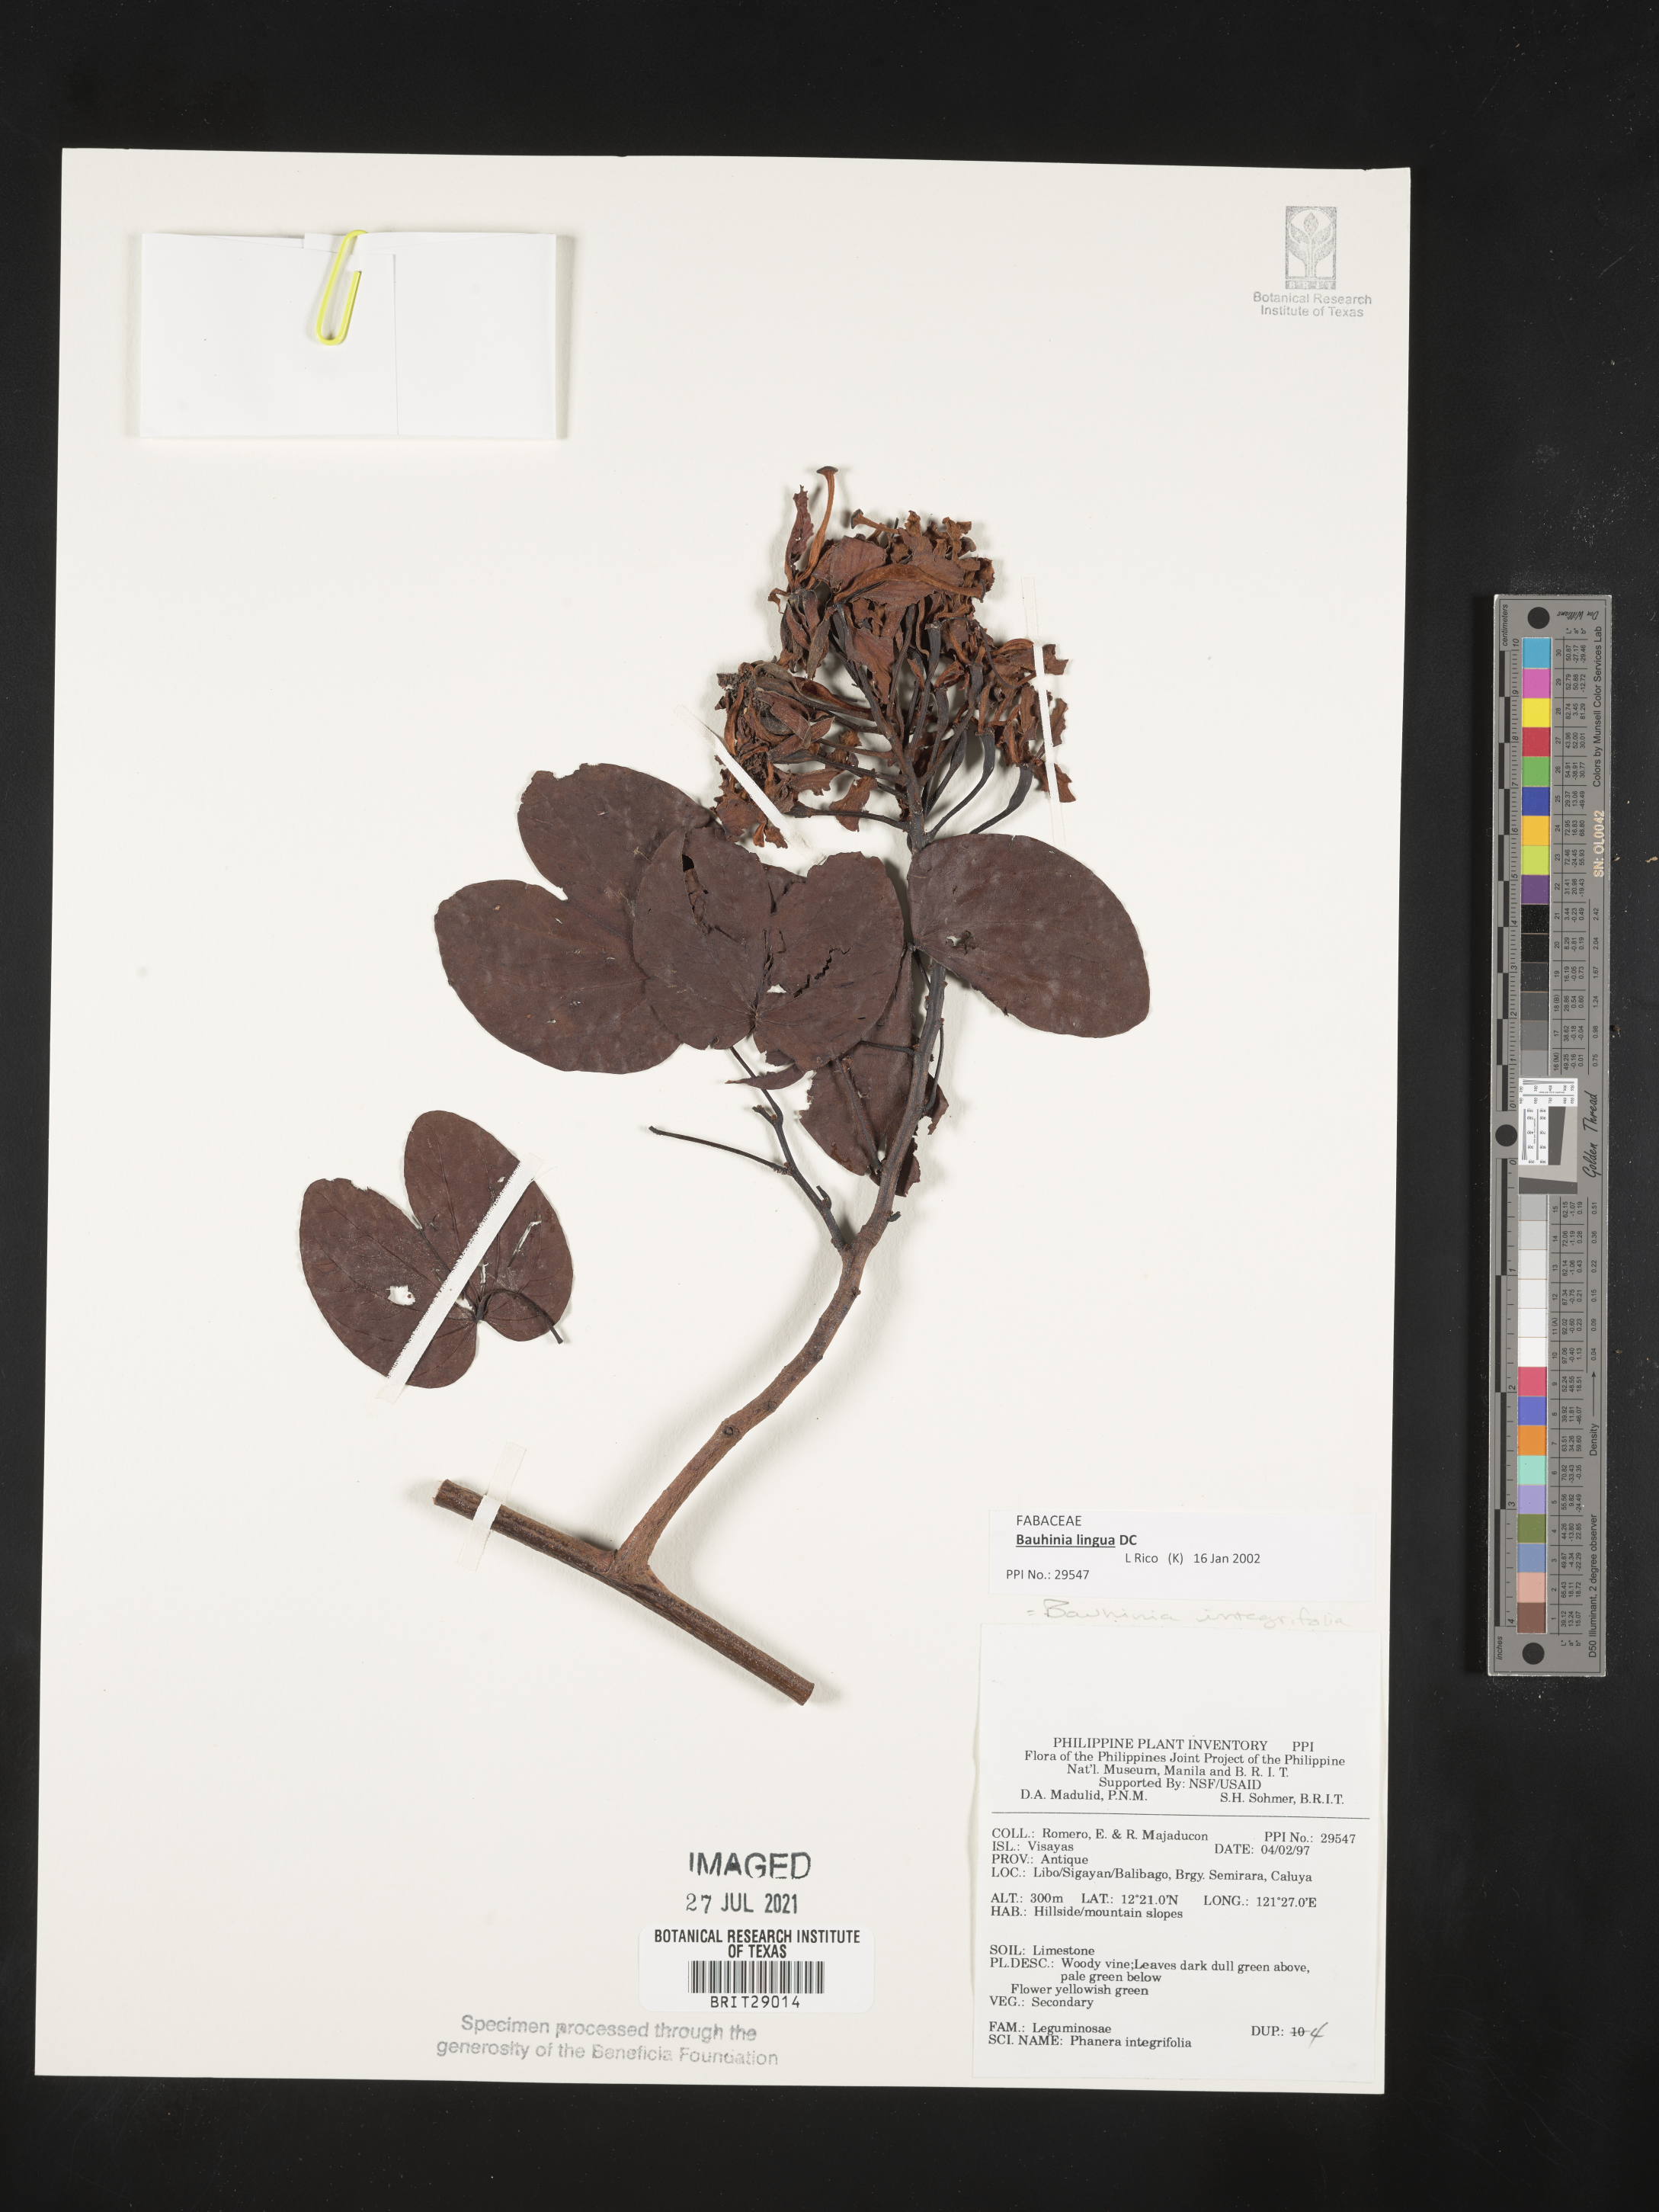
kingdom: Plantae
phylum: Tracheophyta
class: Magnoliopsida
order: Fabales
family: Fabaceae
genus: Phanera
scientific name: Phanera integrifolia
